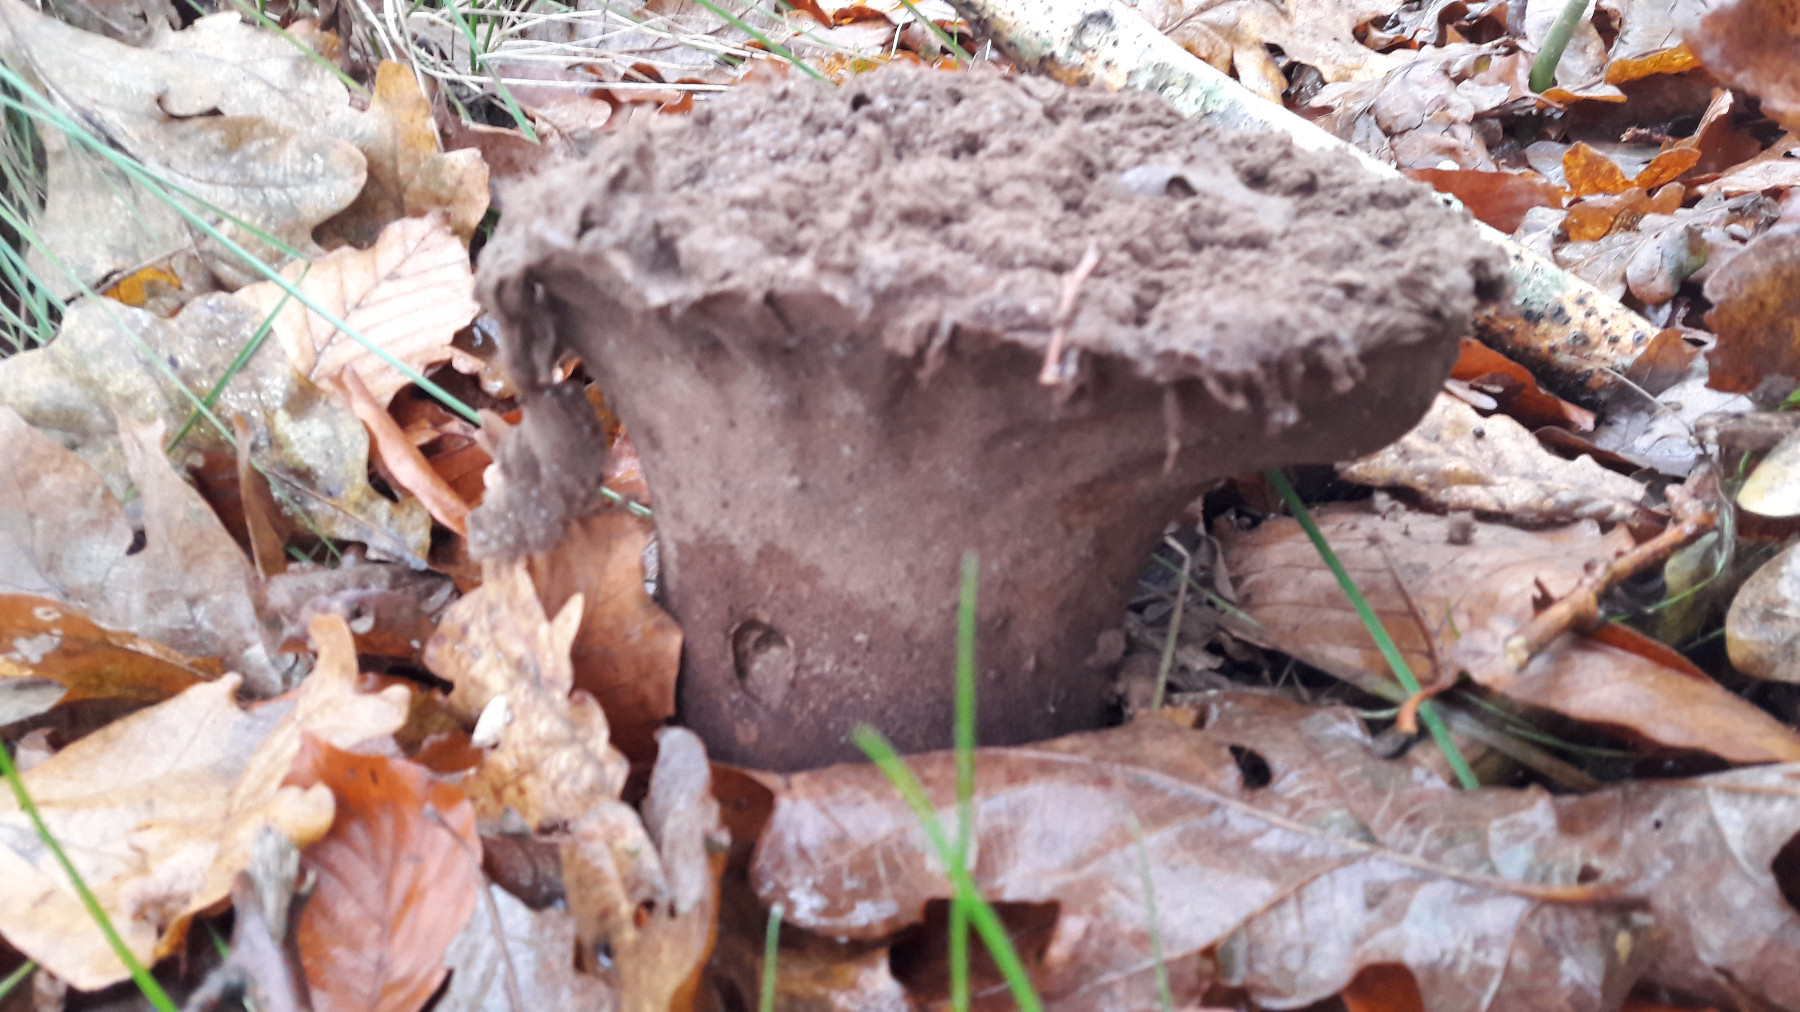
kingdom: Fungi
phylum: Basidiomycota
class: Agaricomycetes
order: Agaricales
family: Lycoperdaceae
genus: Lycoperdon
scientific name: Lycoperdon excipuliforme
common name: højstokket støvbold
